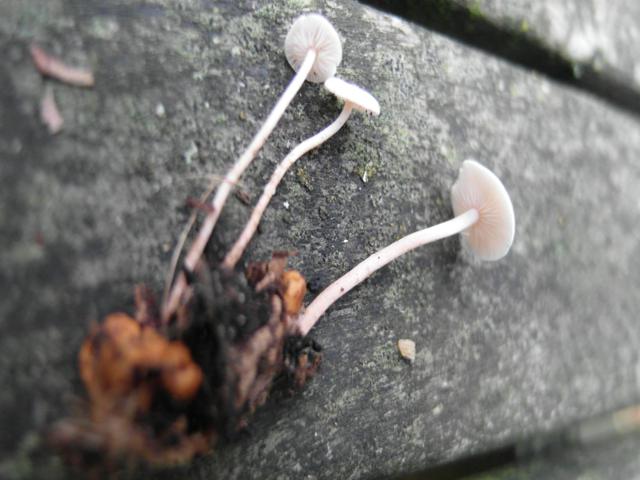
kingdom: Fungi
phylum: Basidiomycota
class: Agaricomycetes
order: Agaricales
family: Tricholomataceae
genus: Collybia
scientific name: Collybia cookei
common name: gulknoldet lighat
